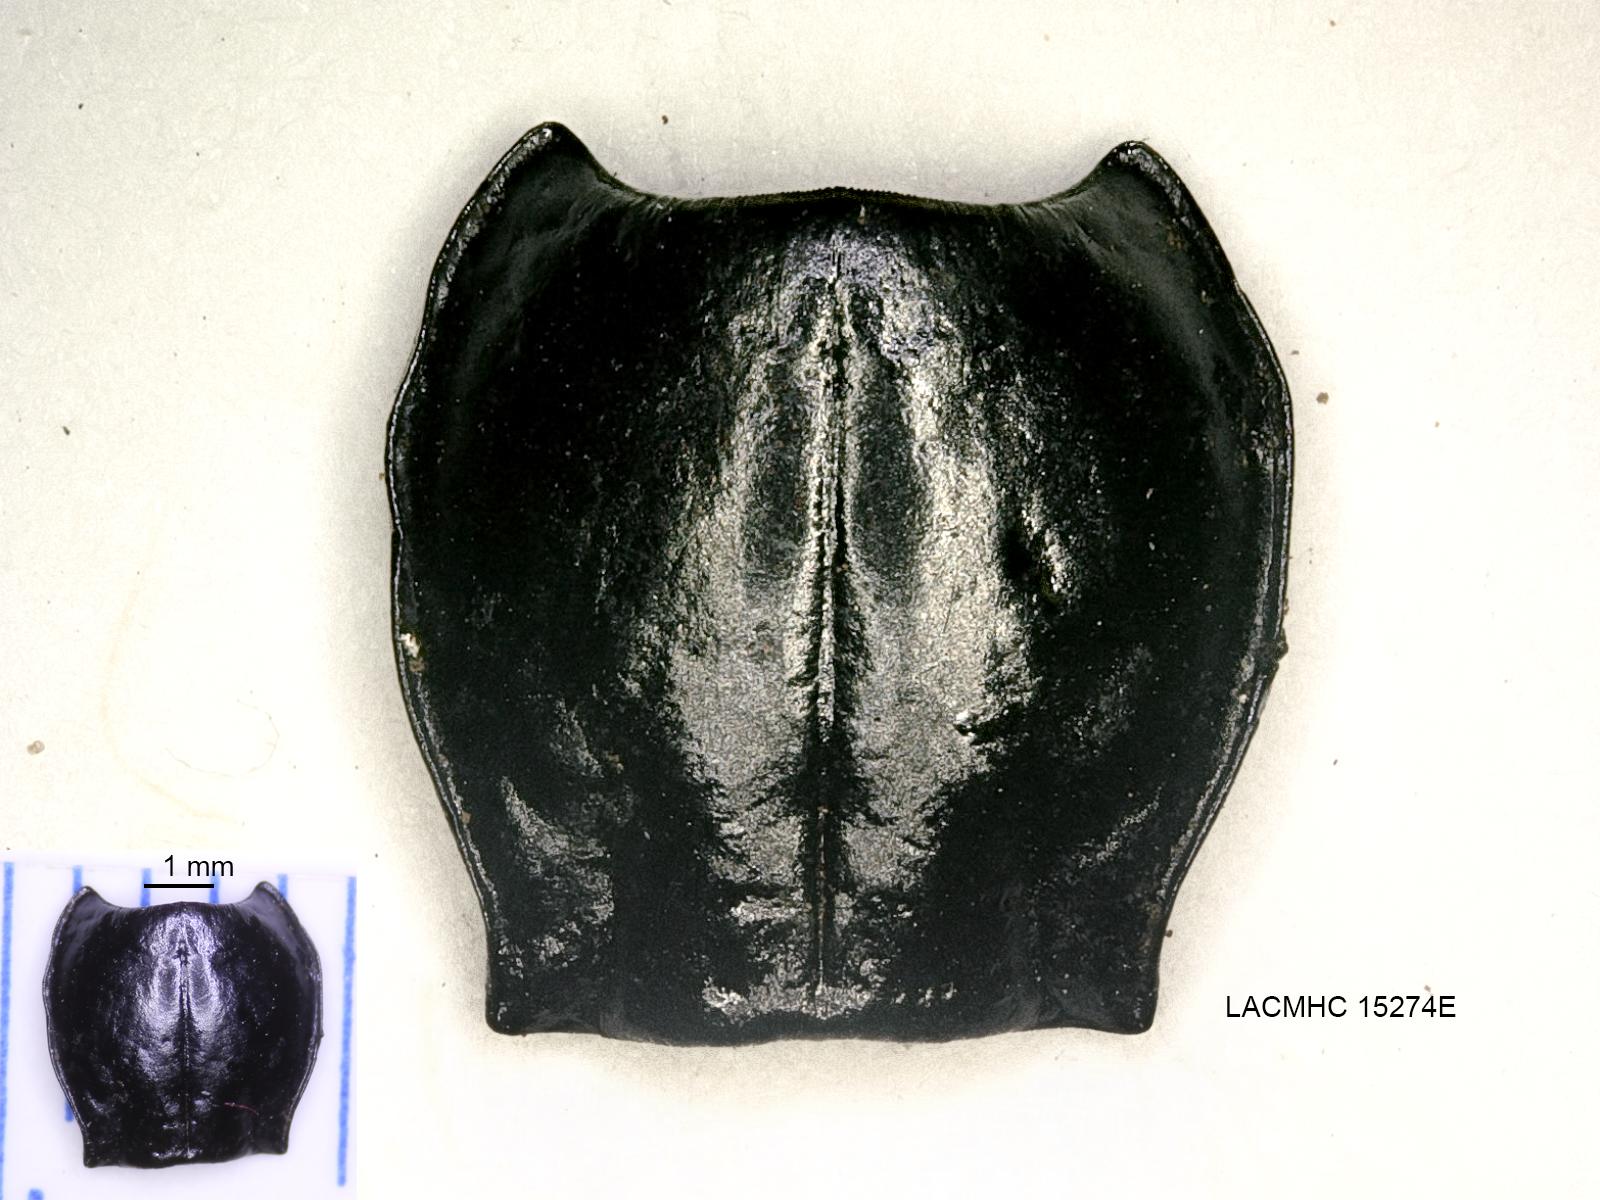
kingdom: Animalia
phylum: Arthropoda
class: Insecta
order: Coleoptera
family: Carabidae
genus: Pterostichus
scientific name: Pterostichus illustris
